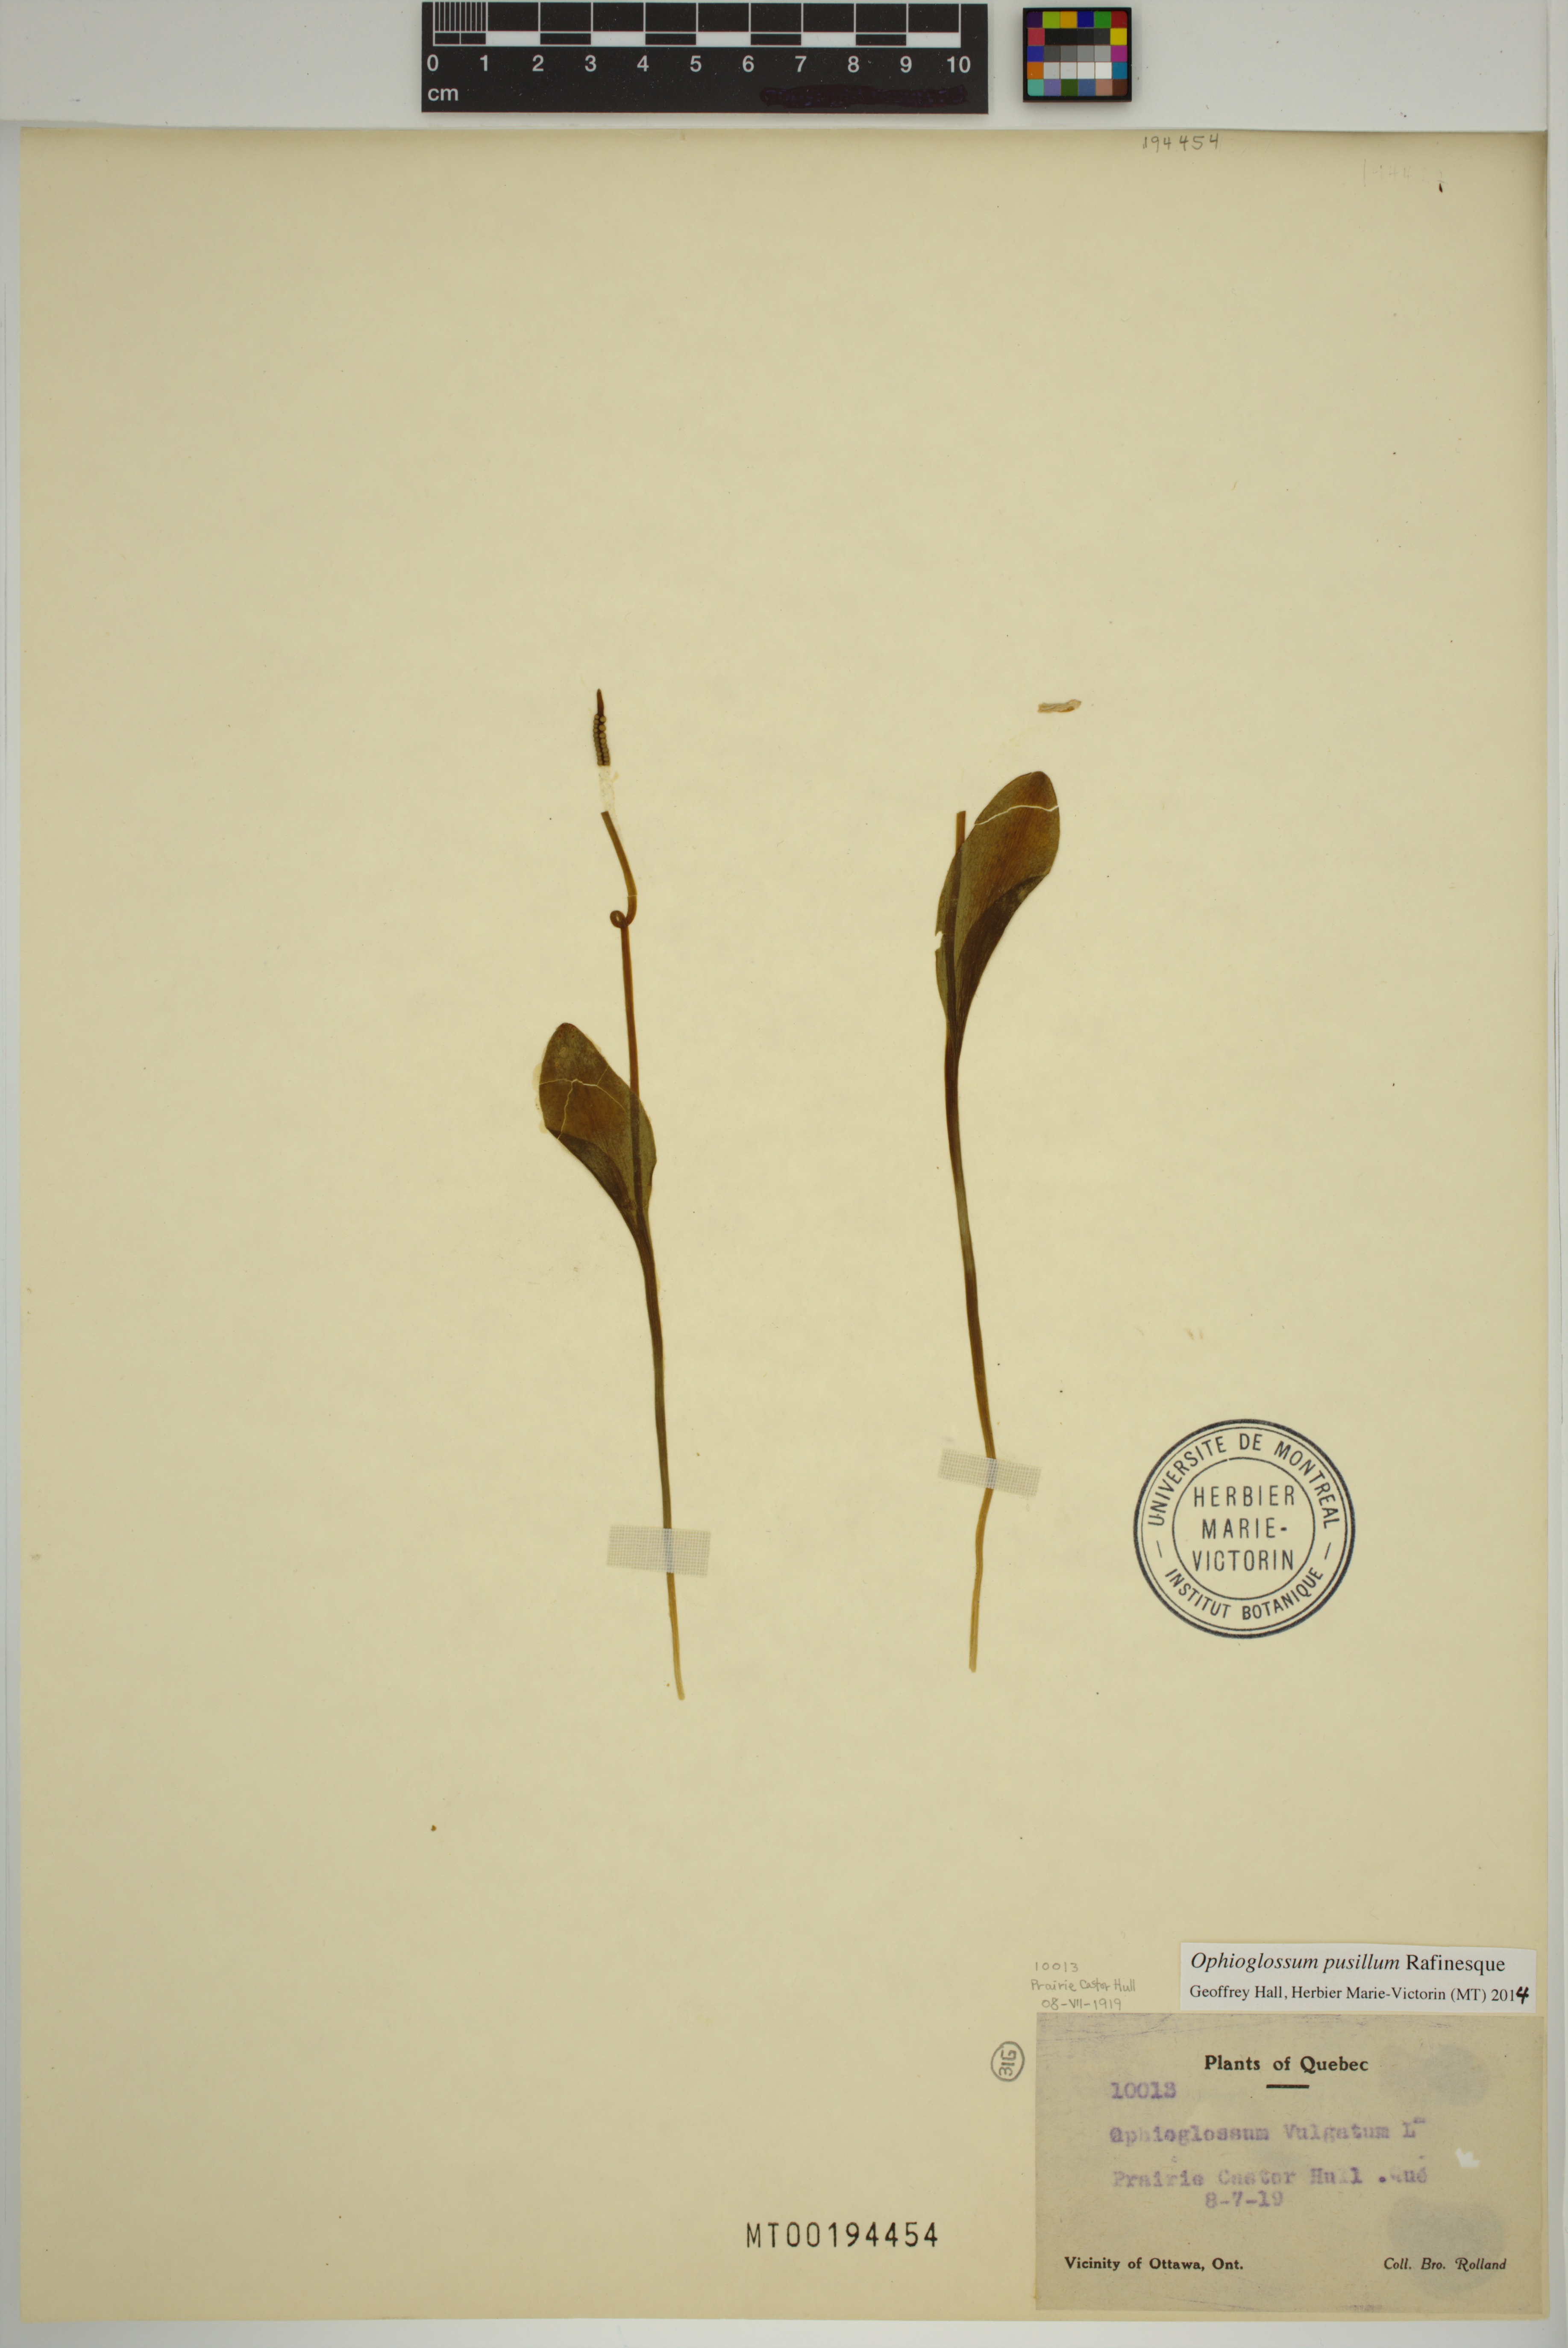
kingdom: Plantae
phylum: Tracheophyta
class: Polypodiopsida
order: Ophioglossales
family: Ophioglossaceae
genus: Ophioglossum
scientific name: Ophioglossum pusillum
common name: Northern adder's-tongue
